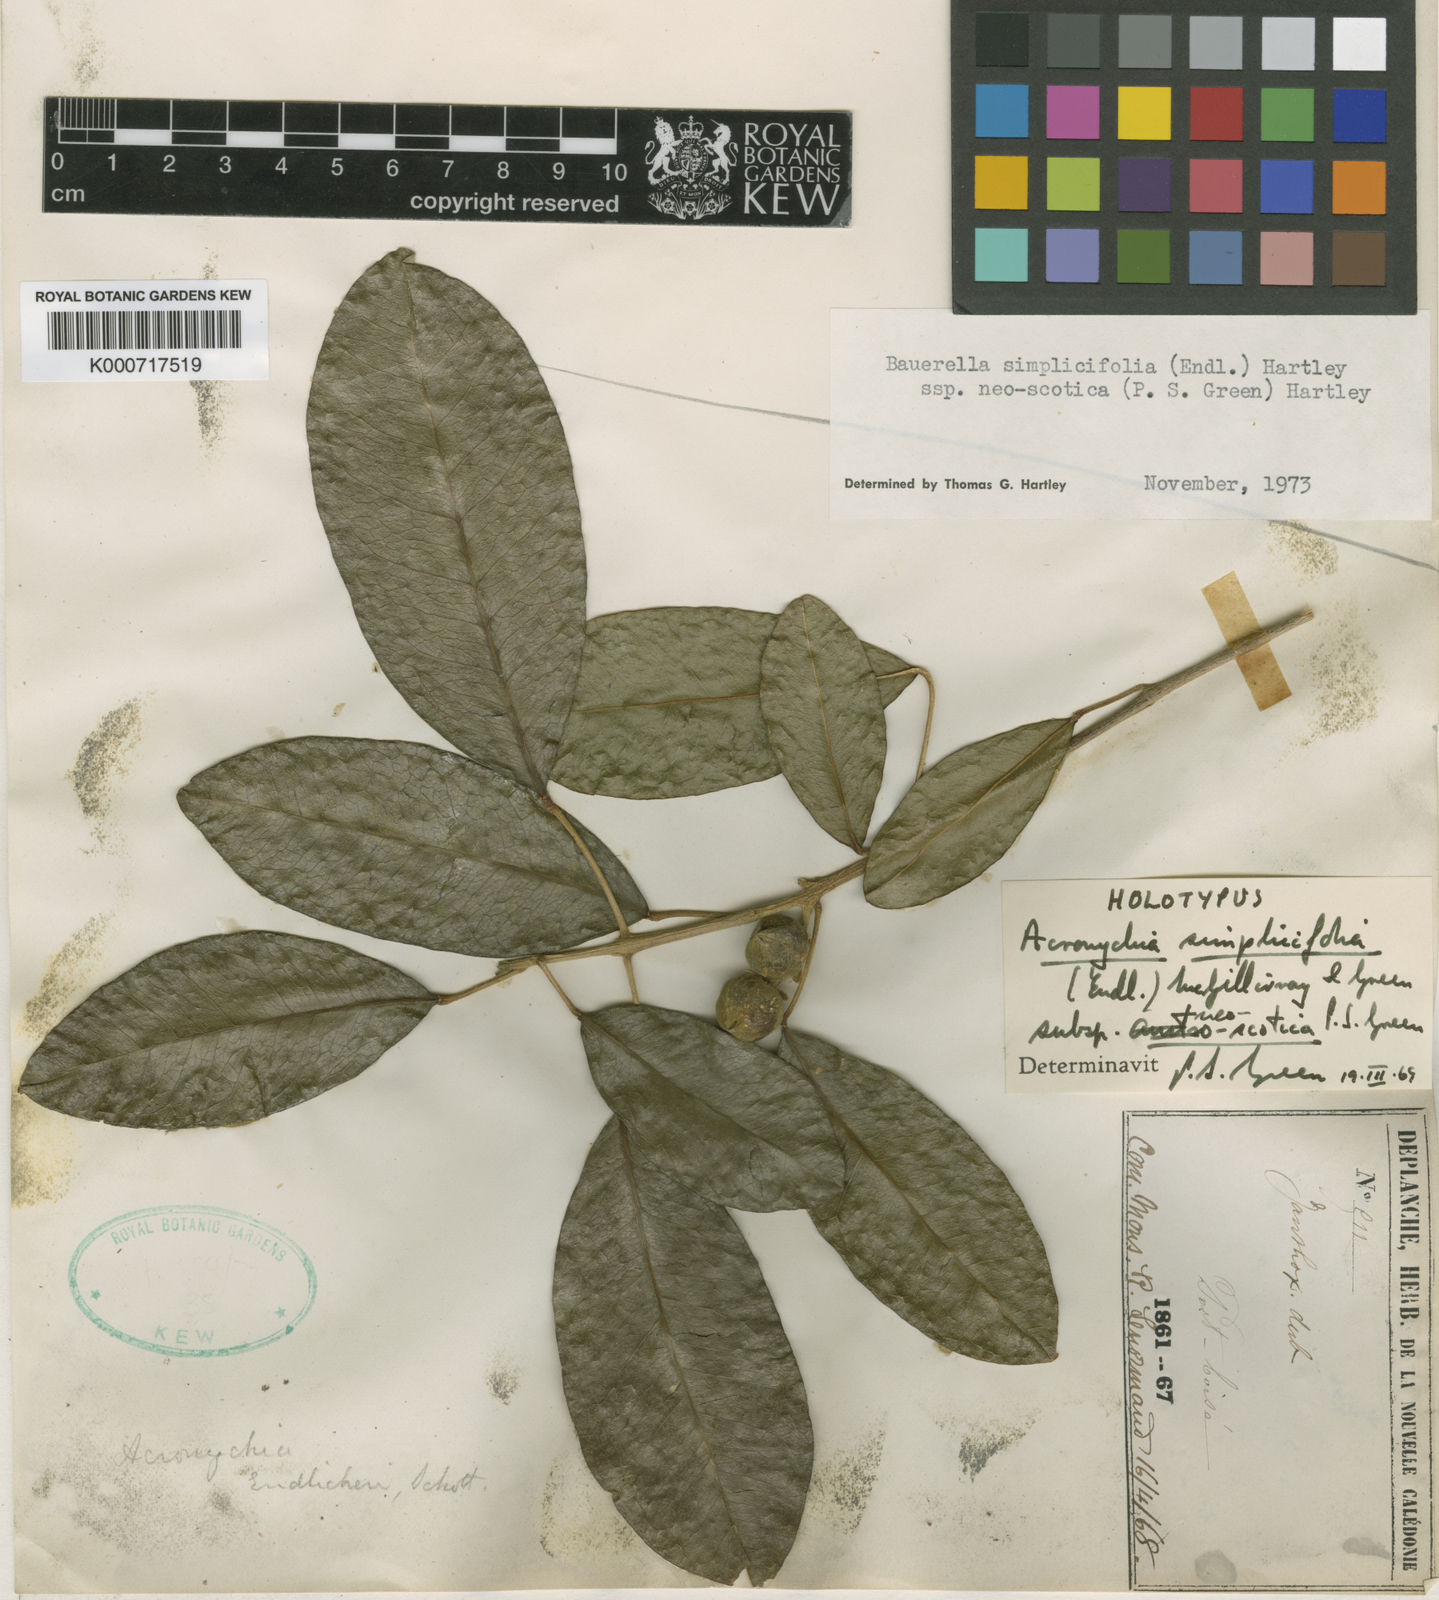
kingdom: Plantae
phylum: Tracheophyta
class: Magnoliopsida
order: Sapindales
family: Rutaceae
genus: Sarcomelicope
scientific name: Sarcomelicope simplicifolia
